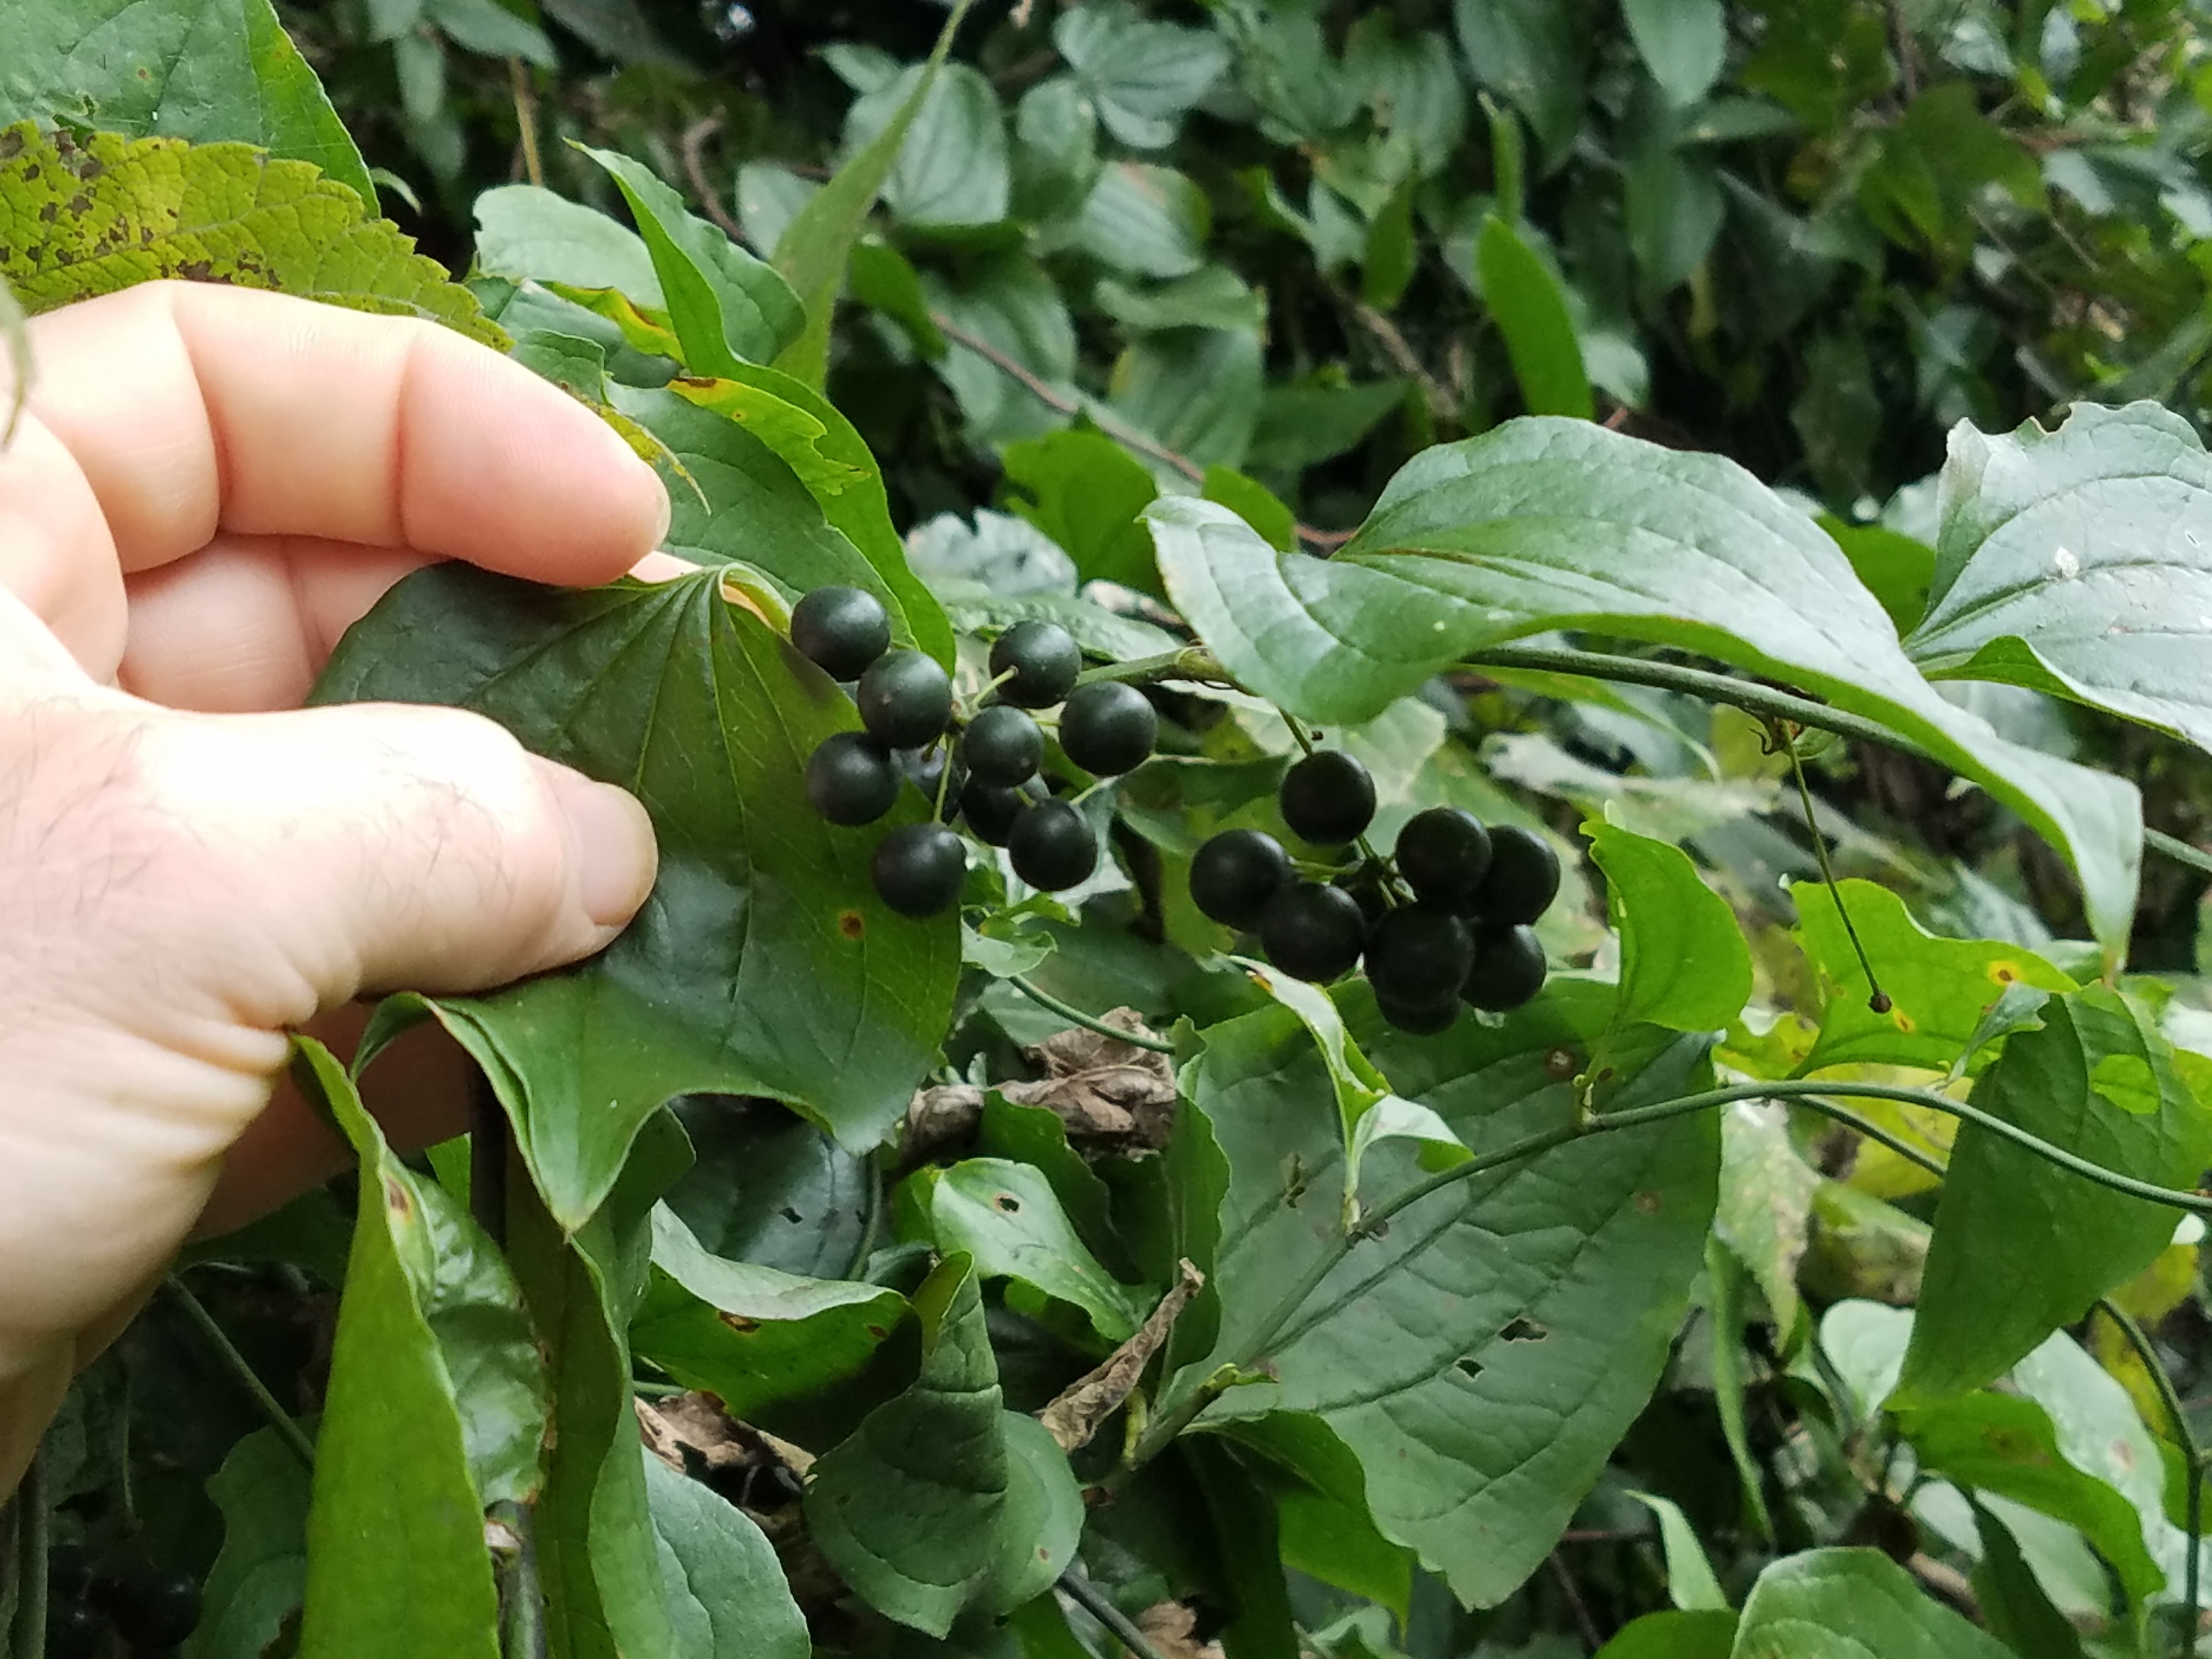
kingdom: Plantae
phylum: Tracheophyta
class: Liliopsida
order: Liliales
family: Smilacaceae
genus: Smilax
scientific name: Smilax tamnoides
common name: Greenbrier
